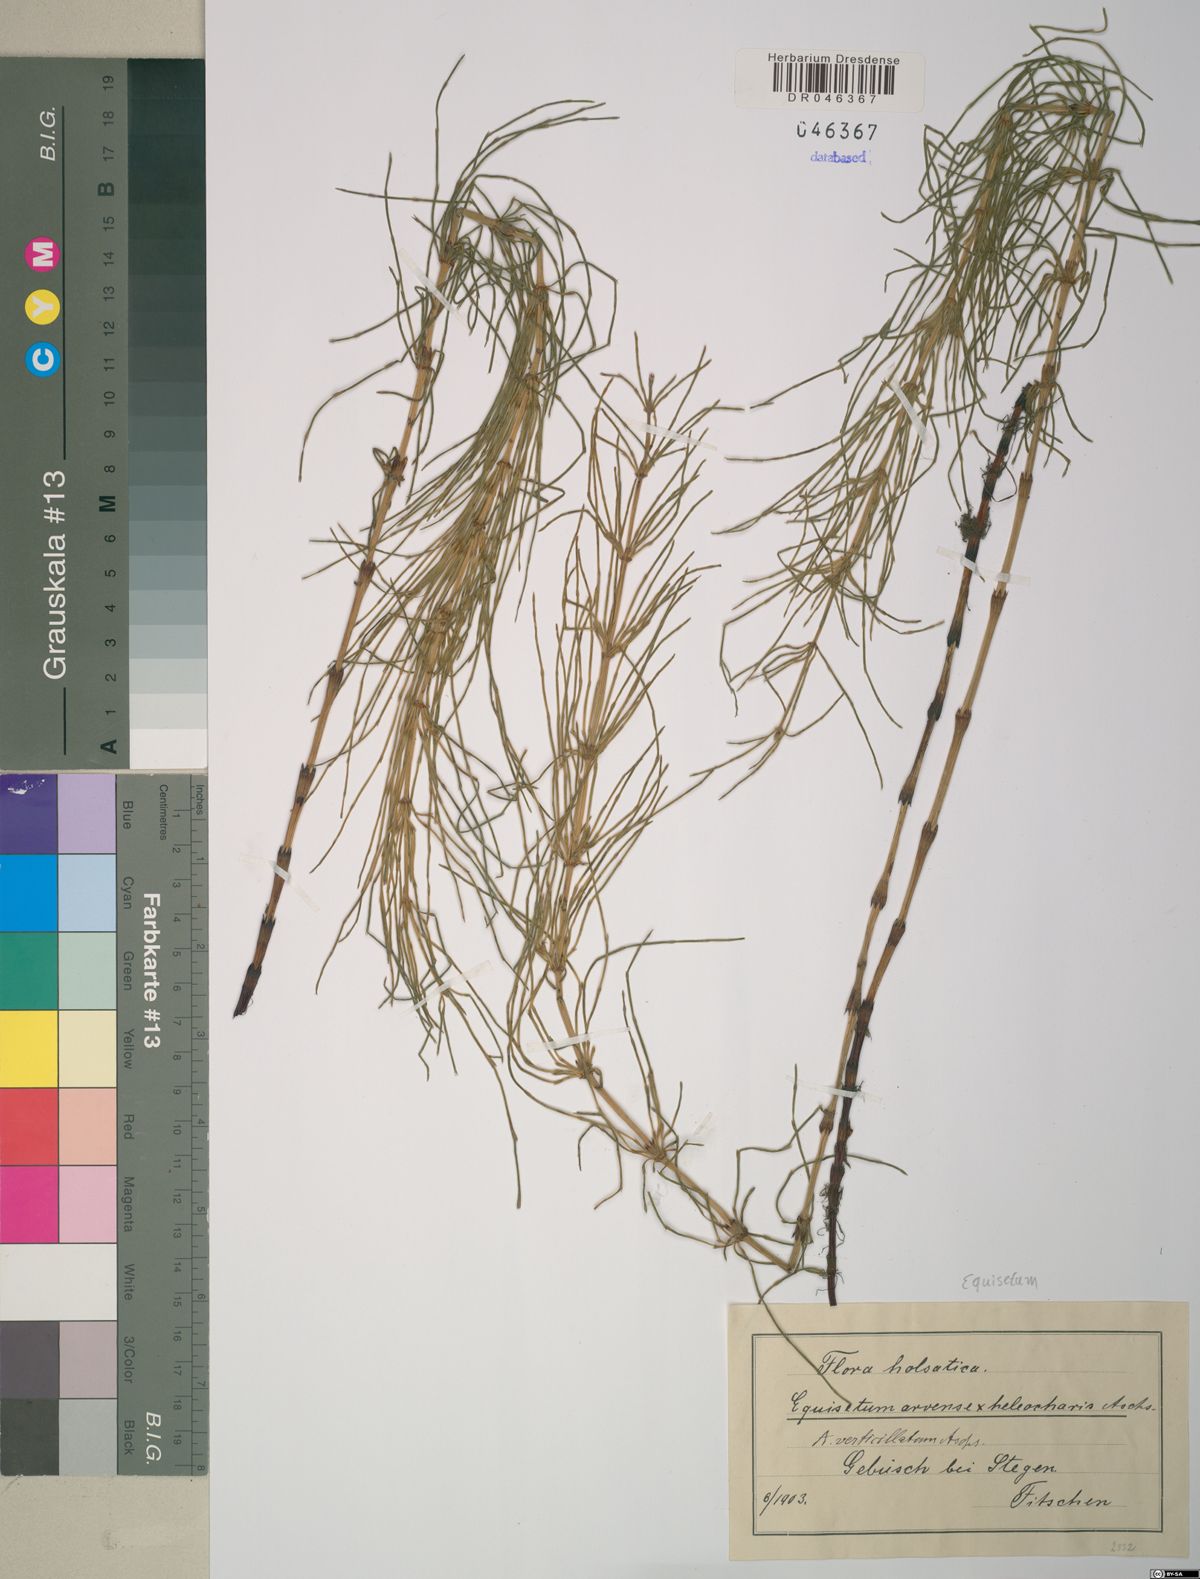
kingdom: Plantae
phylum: Tracheophyta
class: Polypodiopsida
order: Equisetales
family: Equisetaceae
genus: Equisetum
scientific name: Equisetum
